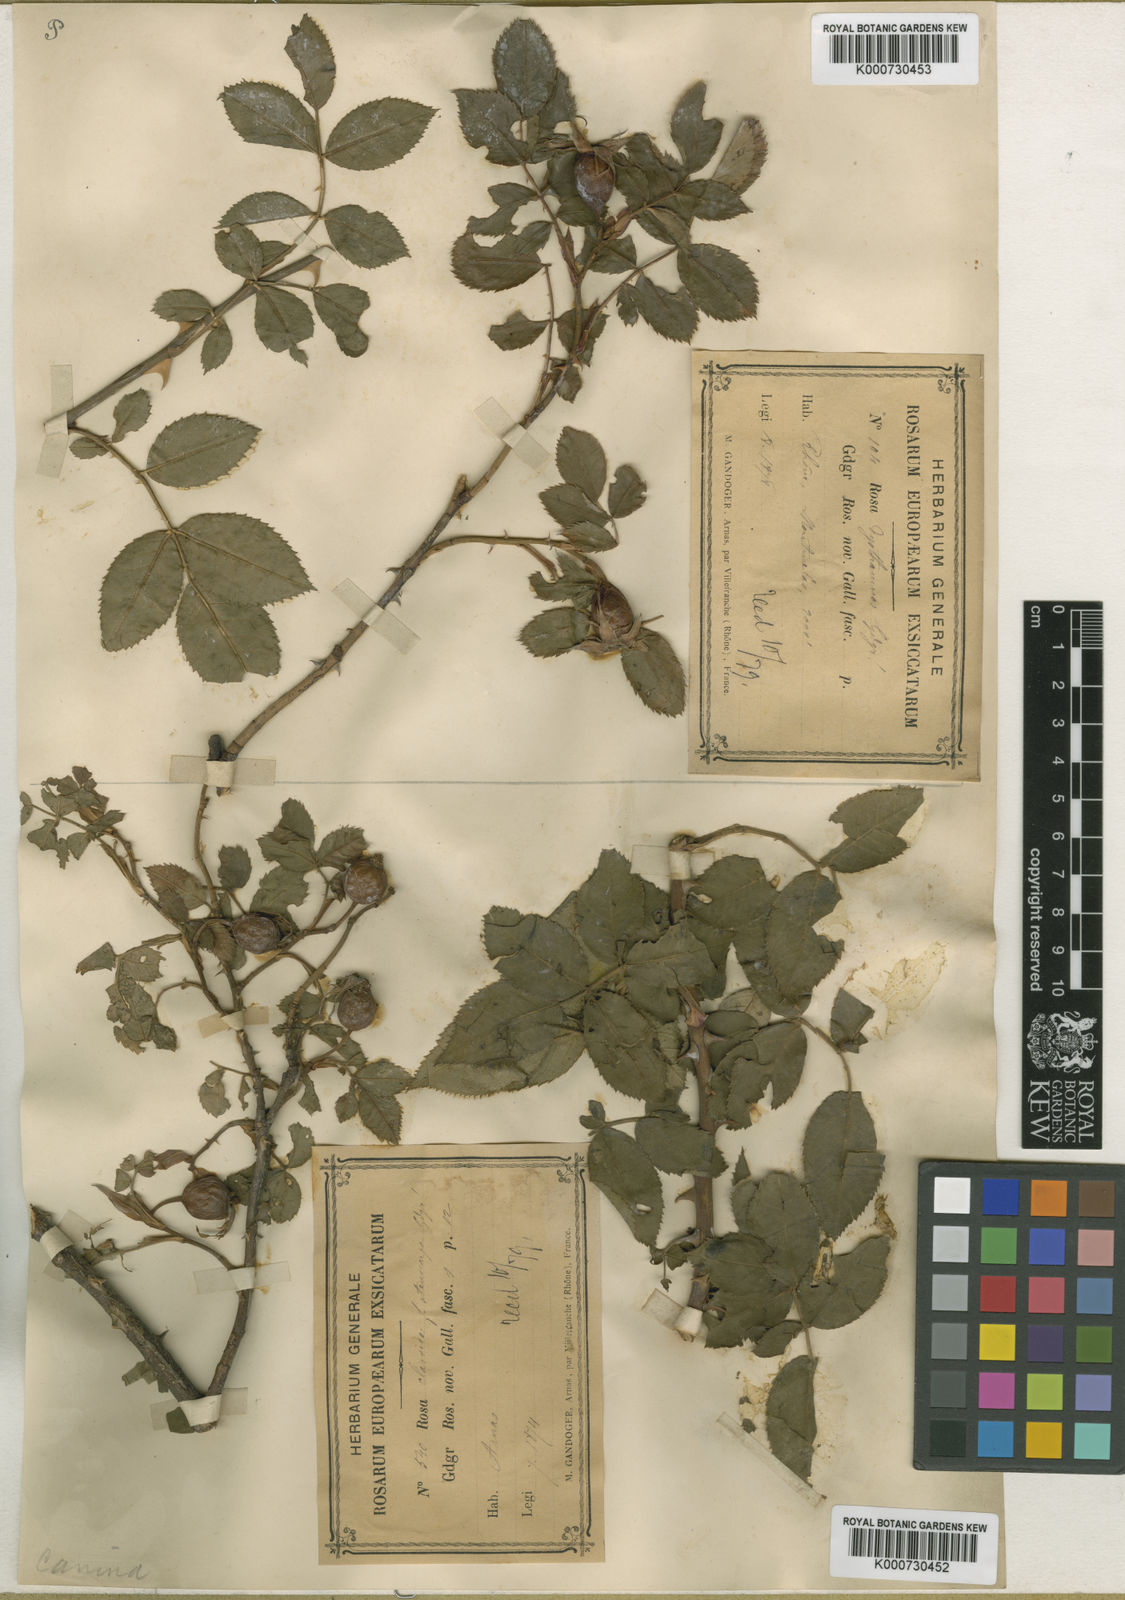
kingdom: Plantae
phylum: Tracheophyta
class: Magnoliopsida
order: Rosales
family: Rosaceae
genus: Rosa
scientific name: Rosa canina
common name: Dog rose
